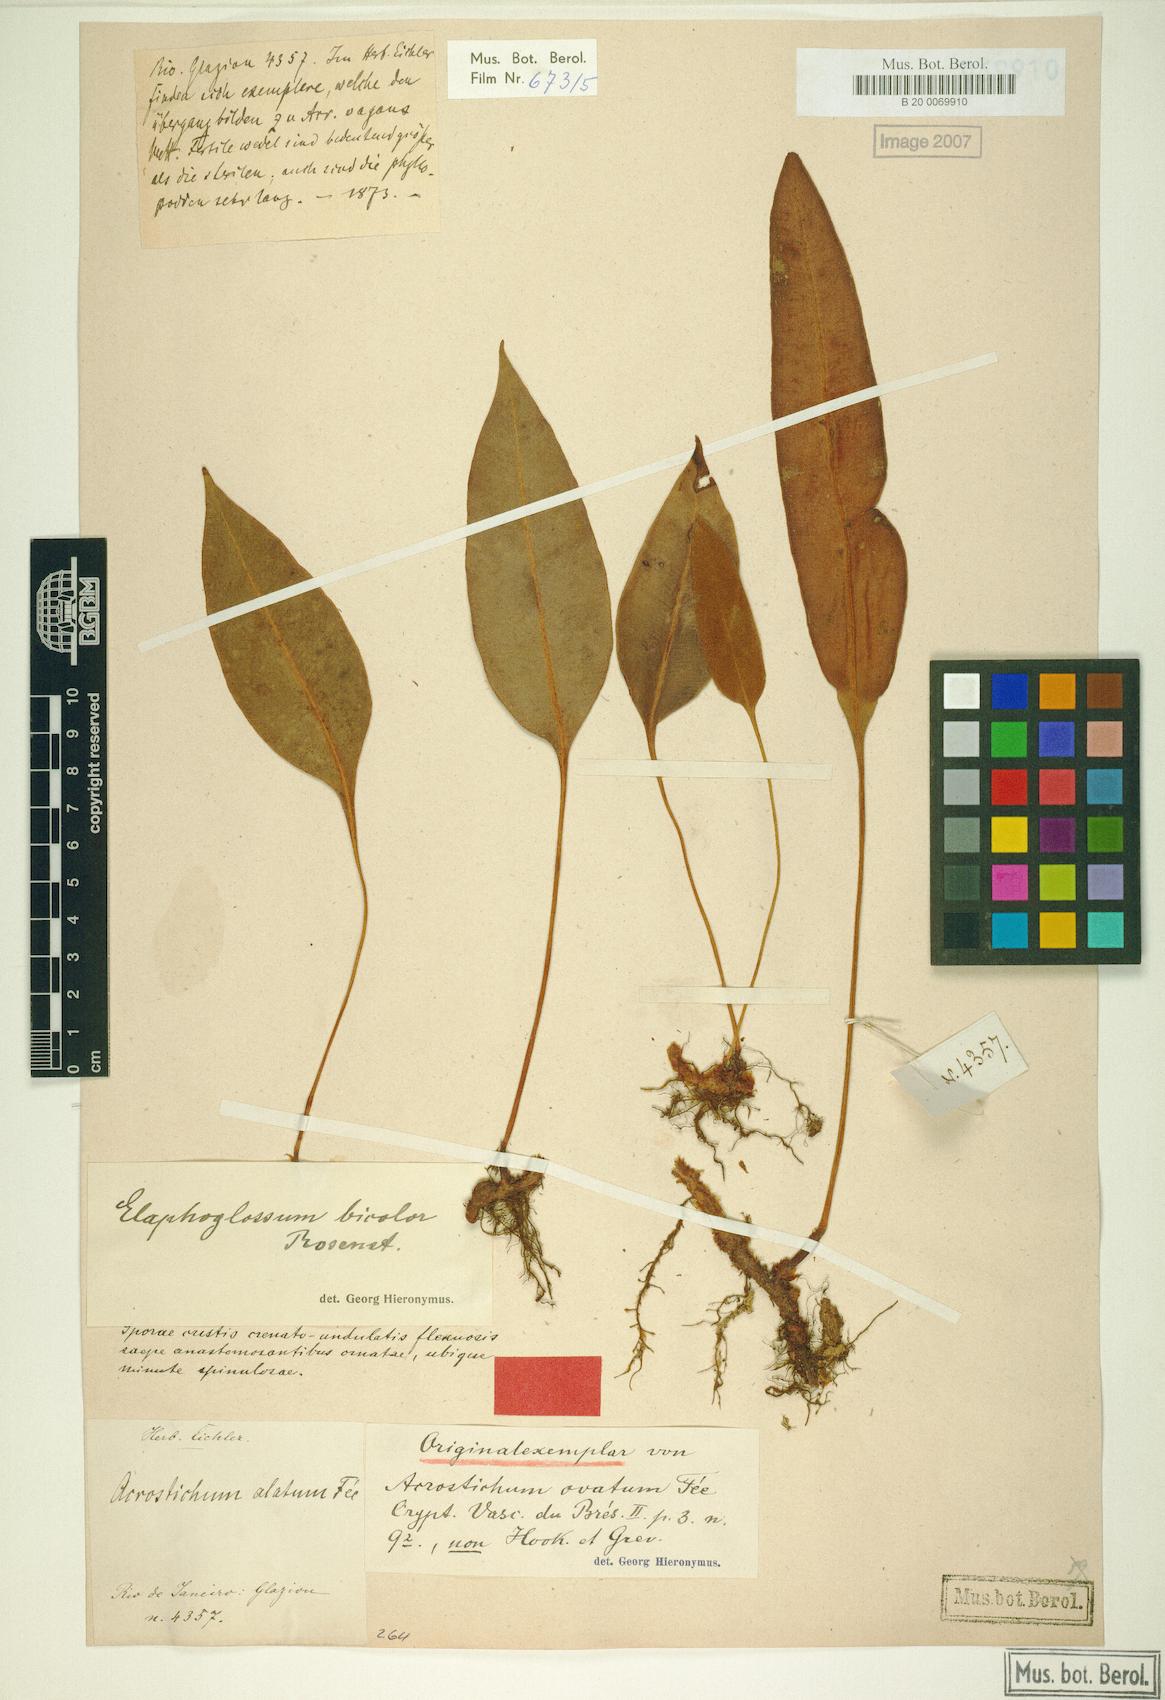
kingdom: Plantae
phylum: Tracheophyta
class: Polypodiopsida
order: Polypodiales
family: Dryopteridaceae
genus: Elaphoglossum
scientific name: Elaphoglossum vagans
